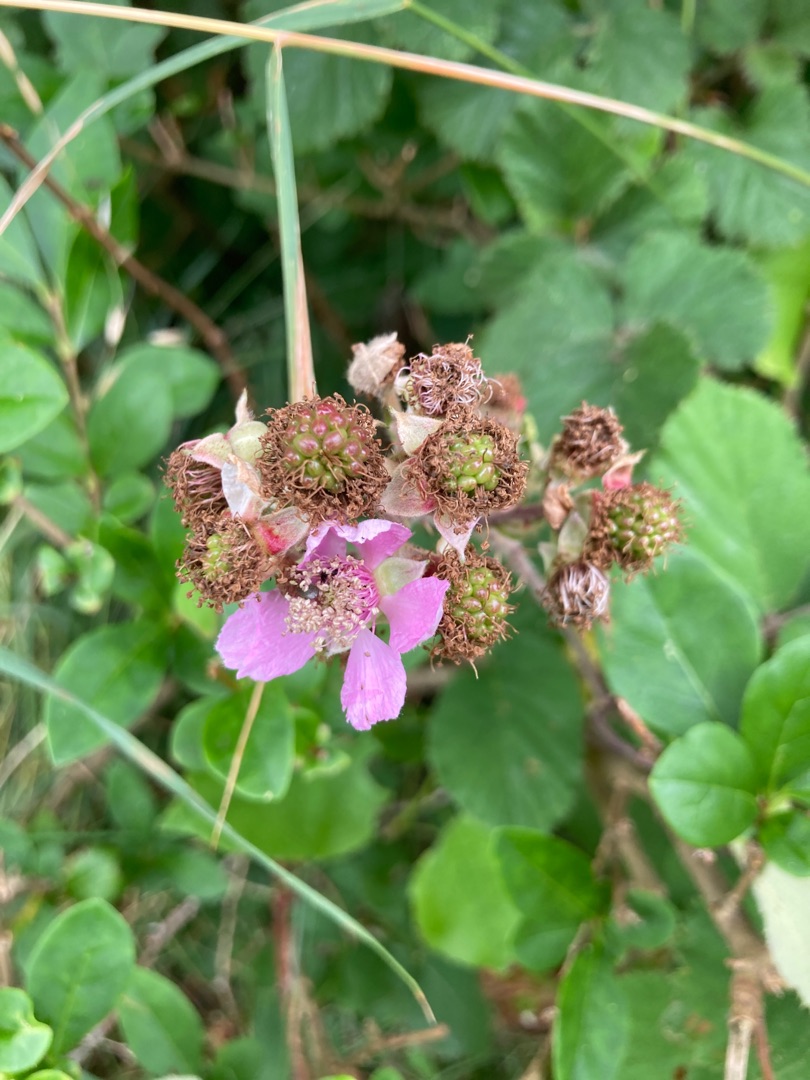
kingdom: Plantae
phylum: Tracheophyta
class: Magnoliopsida
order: Rosales
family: Rosaceae
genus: Rubus
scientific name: Rubus vestitus
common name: Rundbladet brombær
